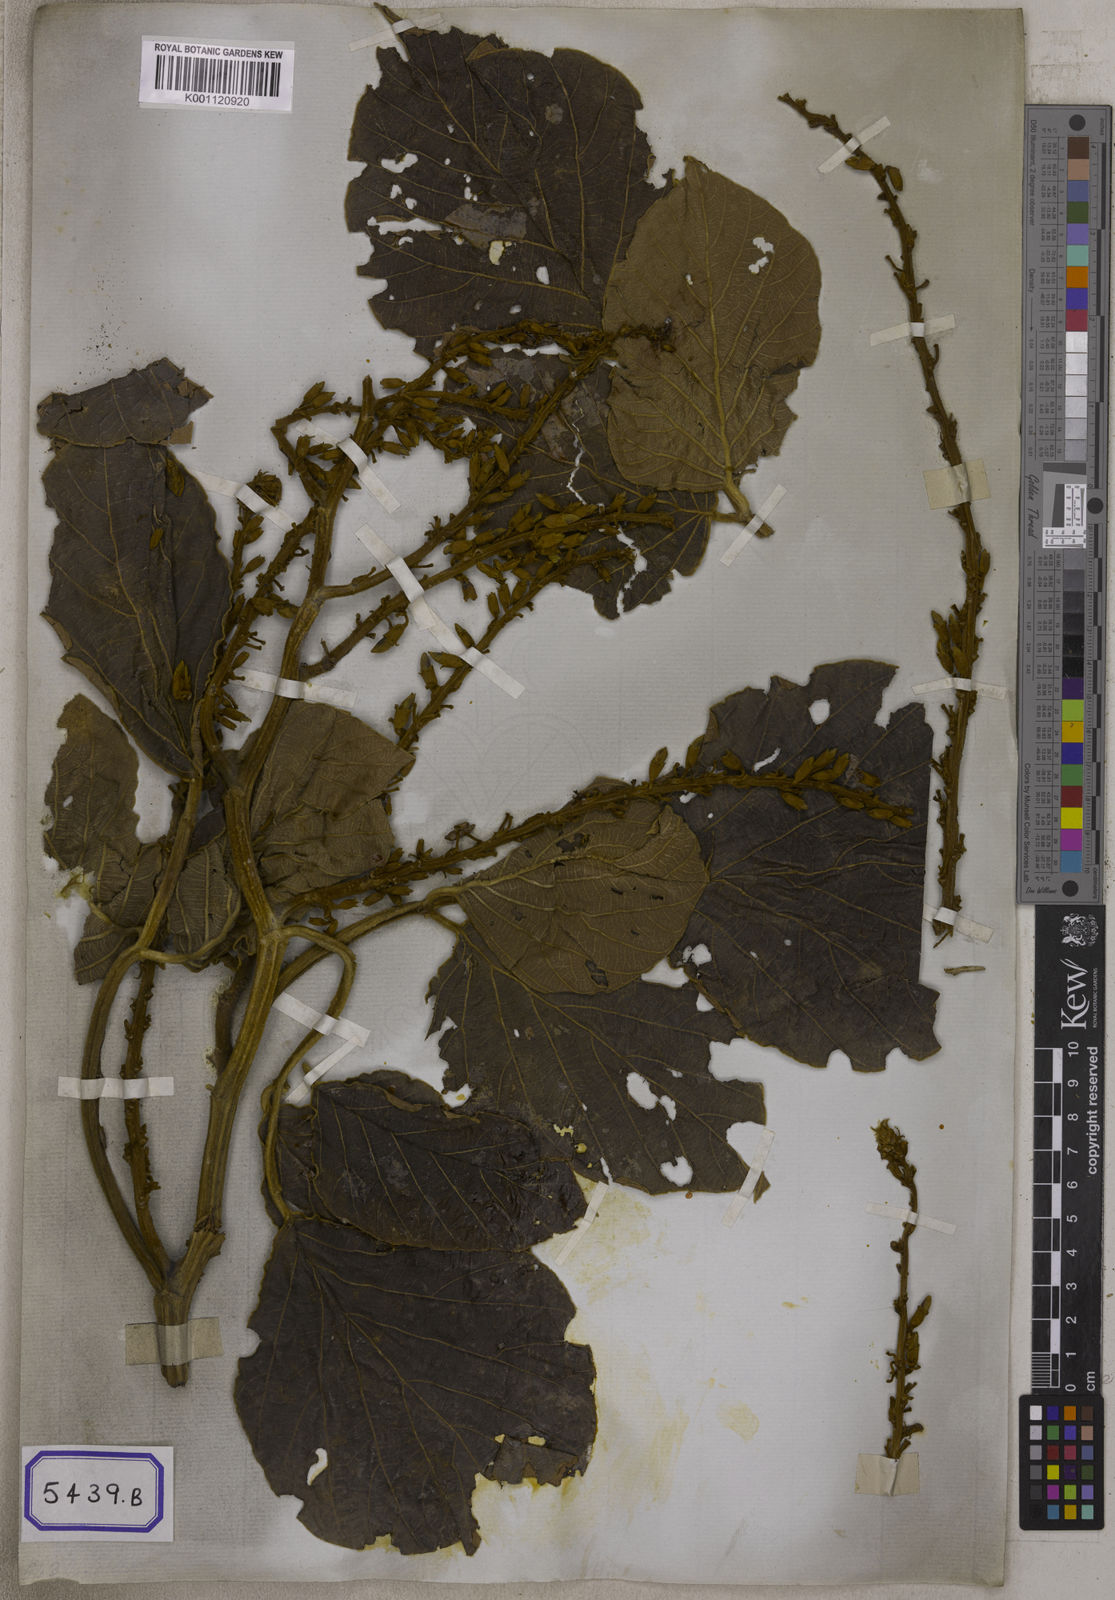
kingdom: Plantae
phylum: Tracheophyta
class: Magnoliopsida
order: Fabales
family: Fabaceae
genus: Butea
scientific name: Butea
